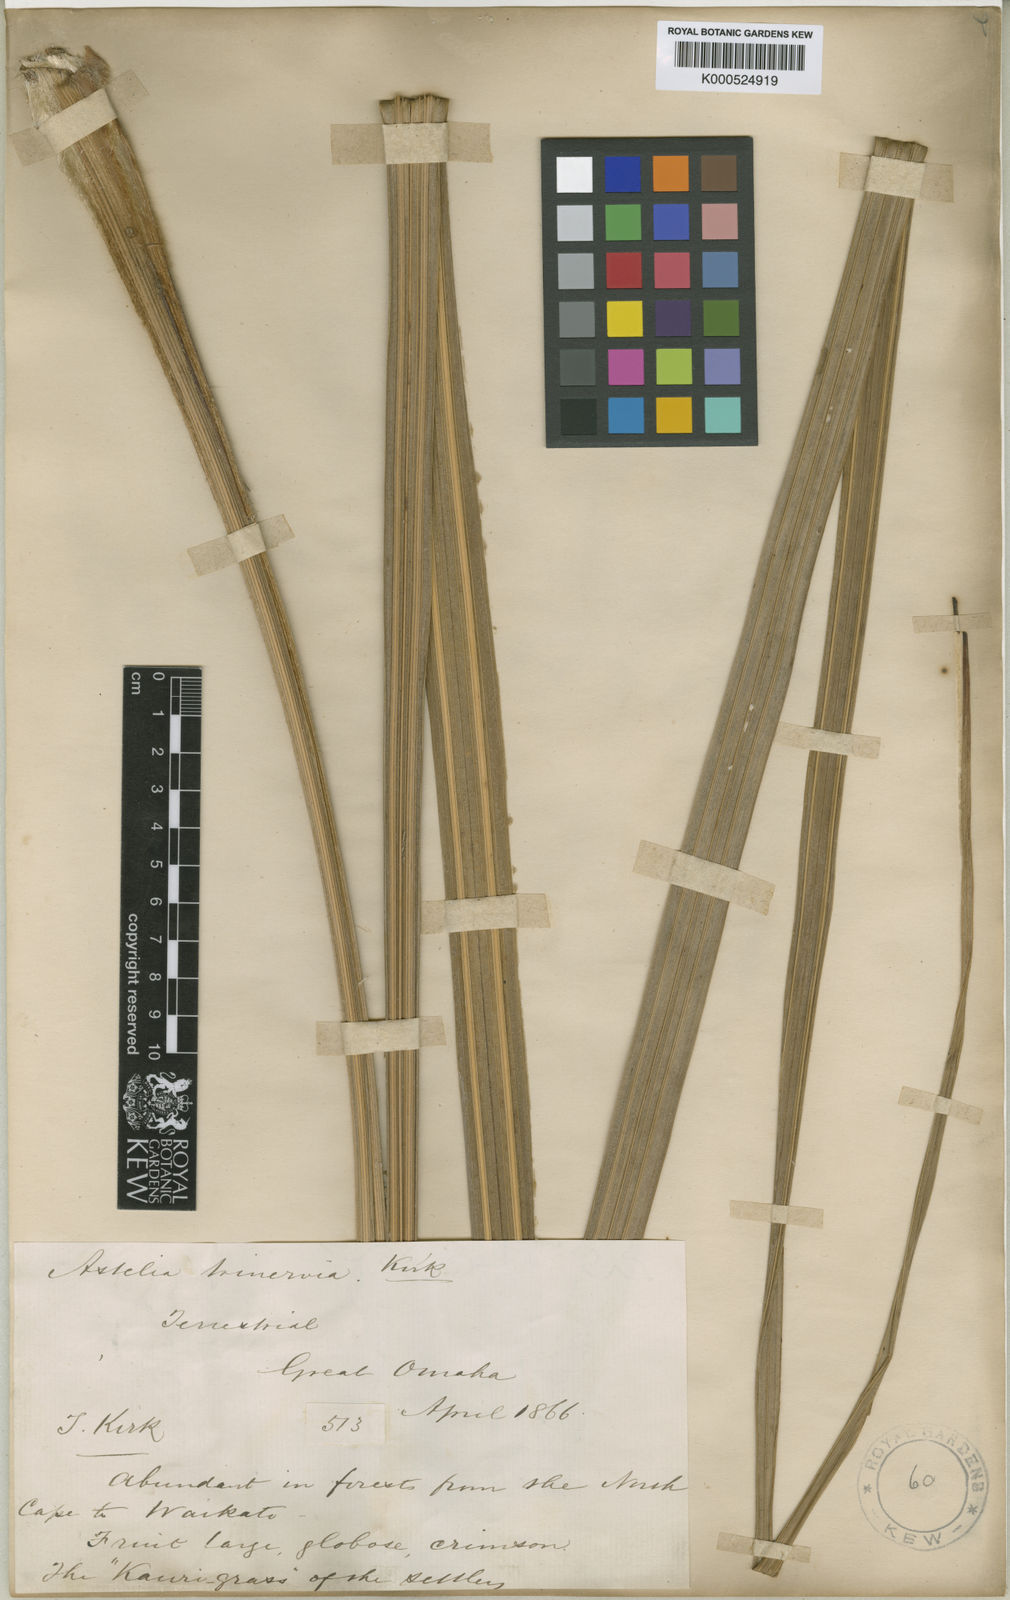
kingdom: Plantae
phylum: Tracheophyta
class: Liliopsida
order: Asparagales
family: Asteliaceae
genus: Astelia
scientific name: Astelia trinervia
